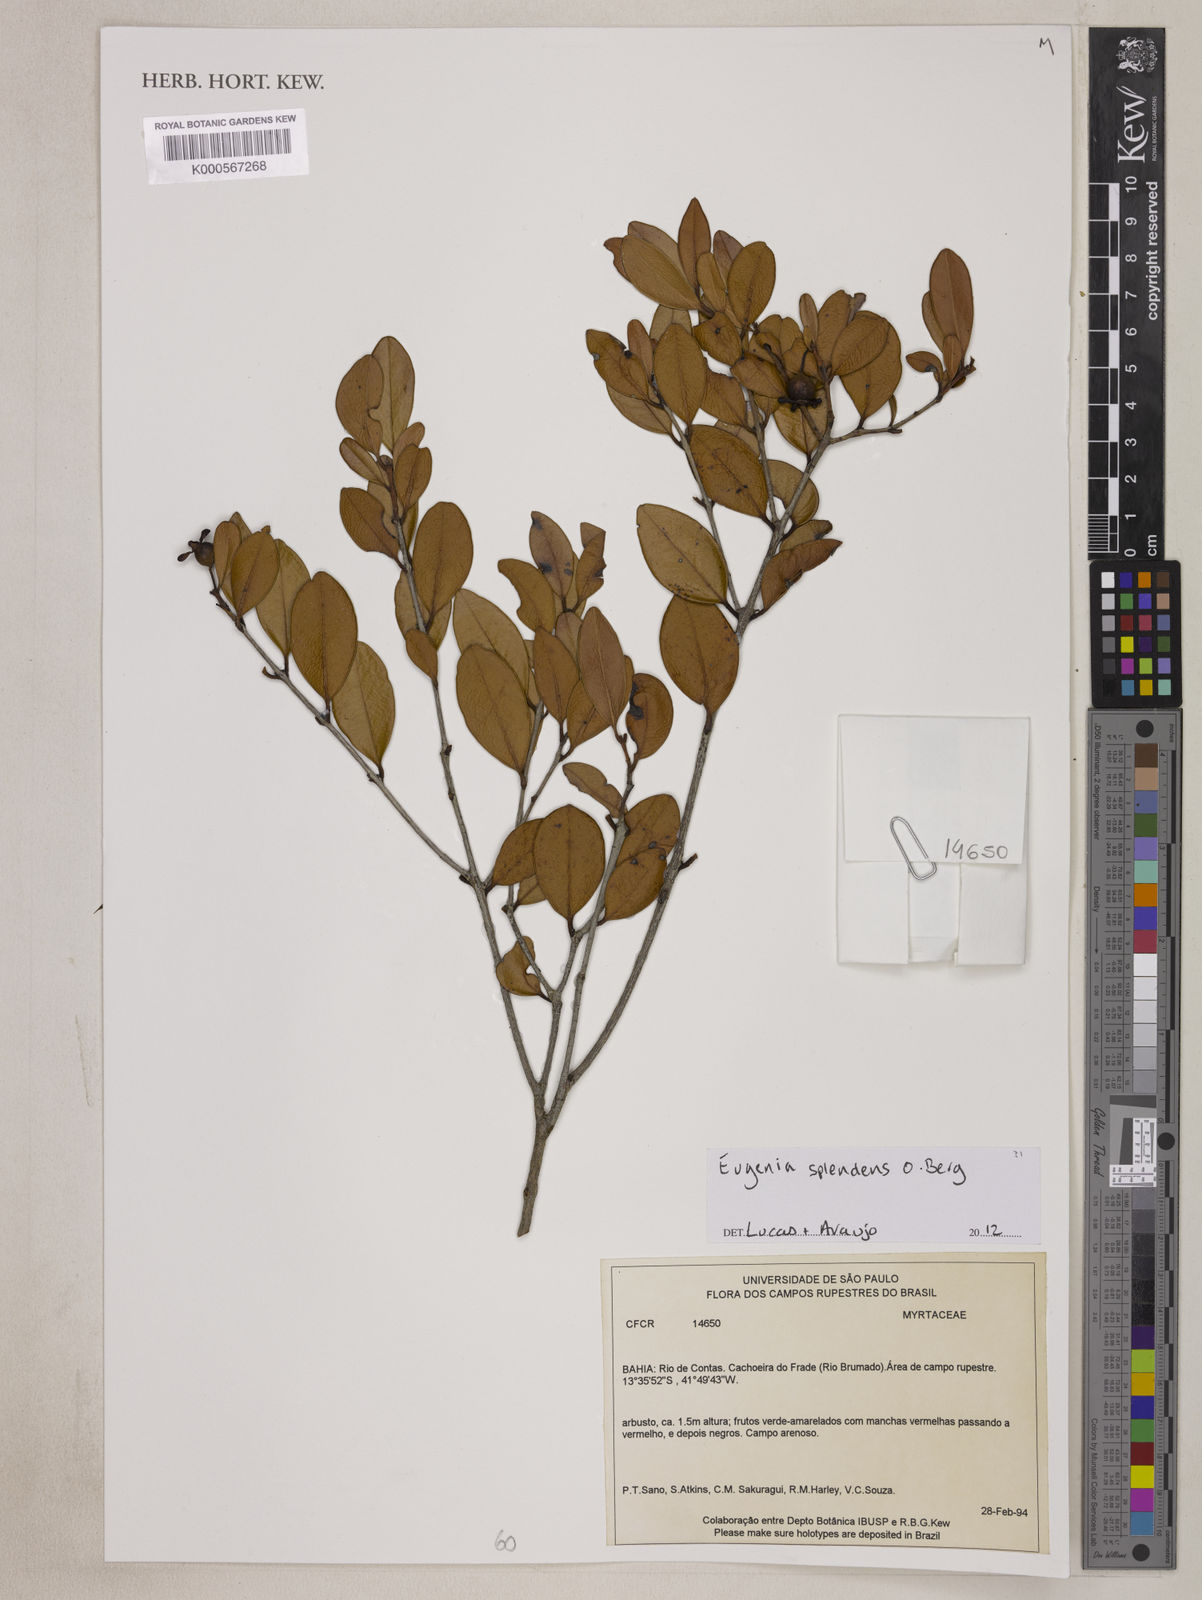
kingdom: Plantae
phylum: Tracheophyta
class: Magnoliopsida
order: Myrtales
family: Myrtaceae
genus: Eugenia
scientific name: Eugenia warmingiana
